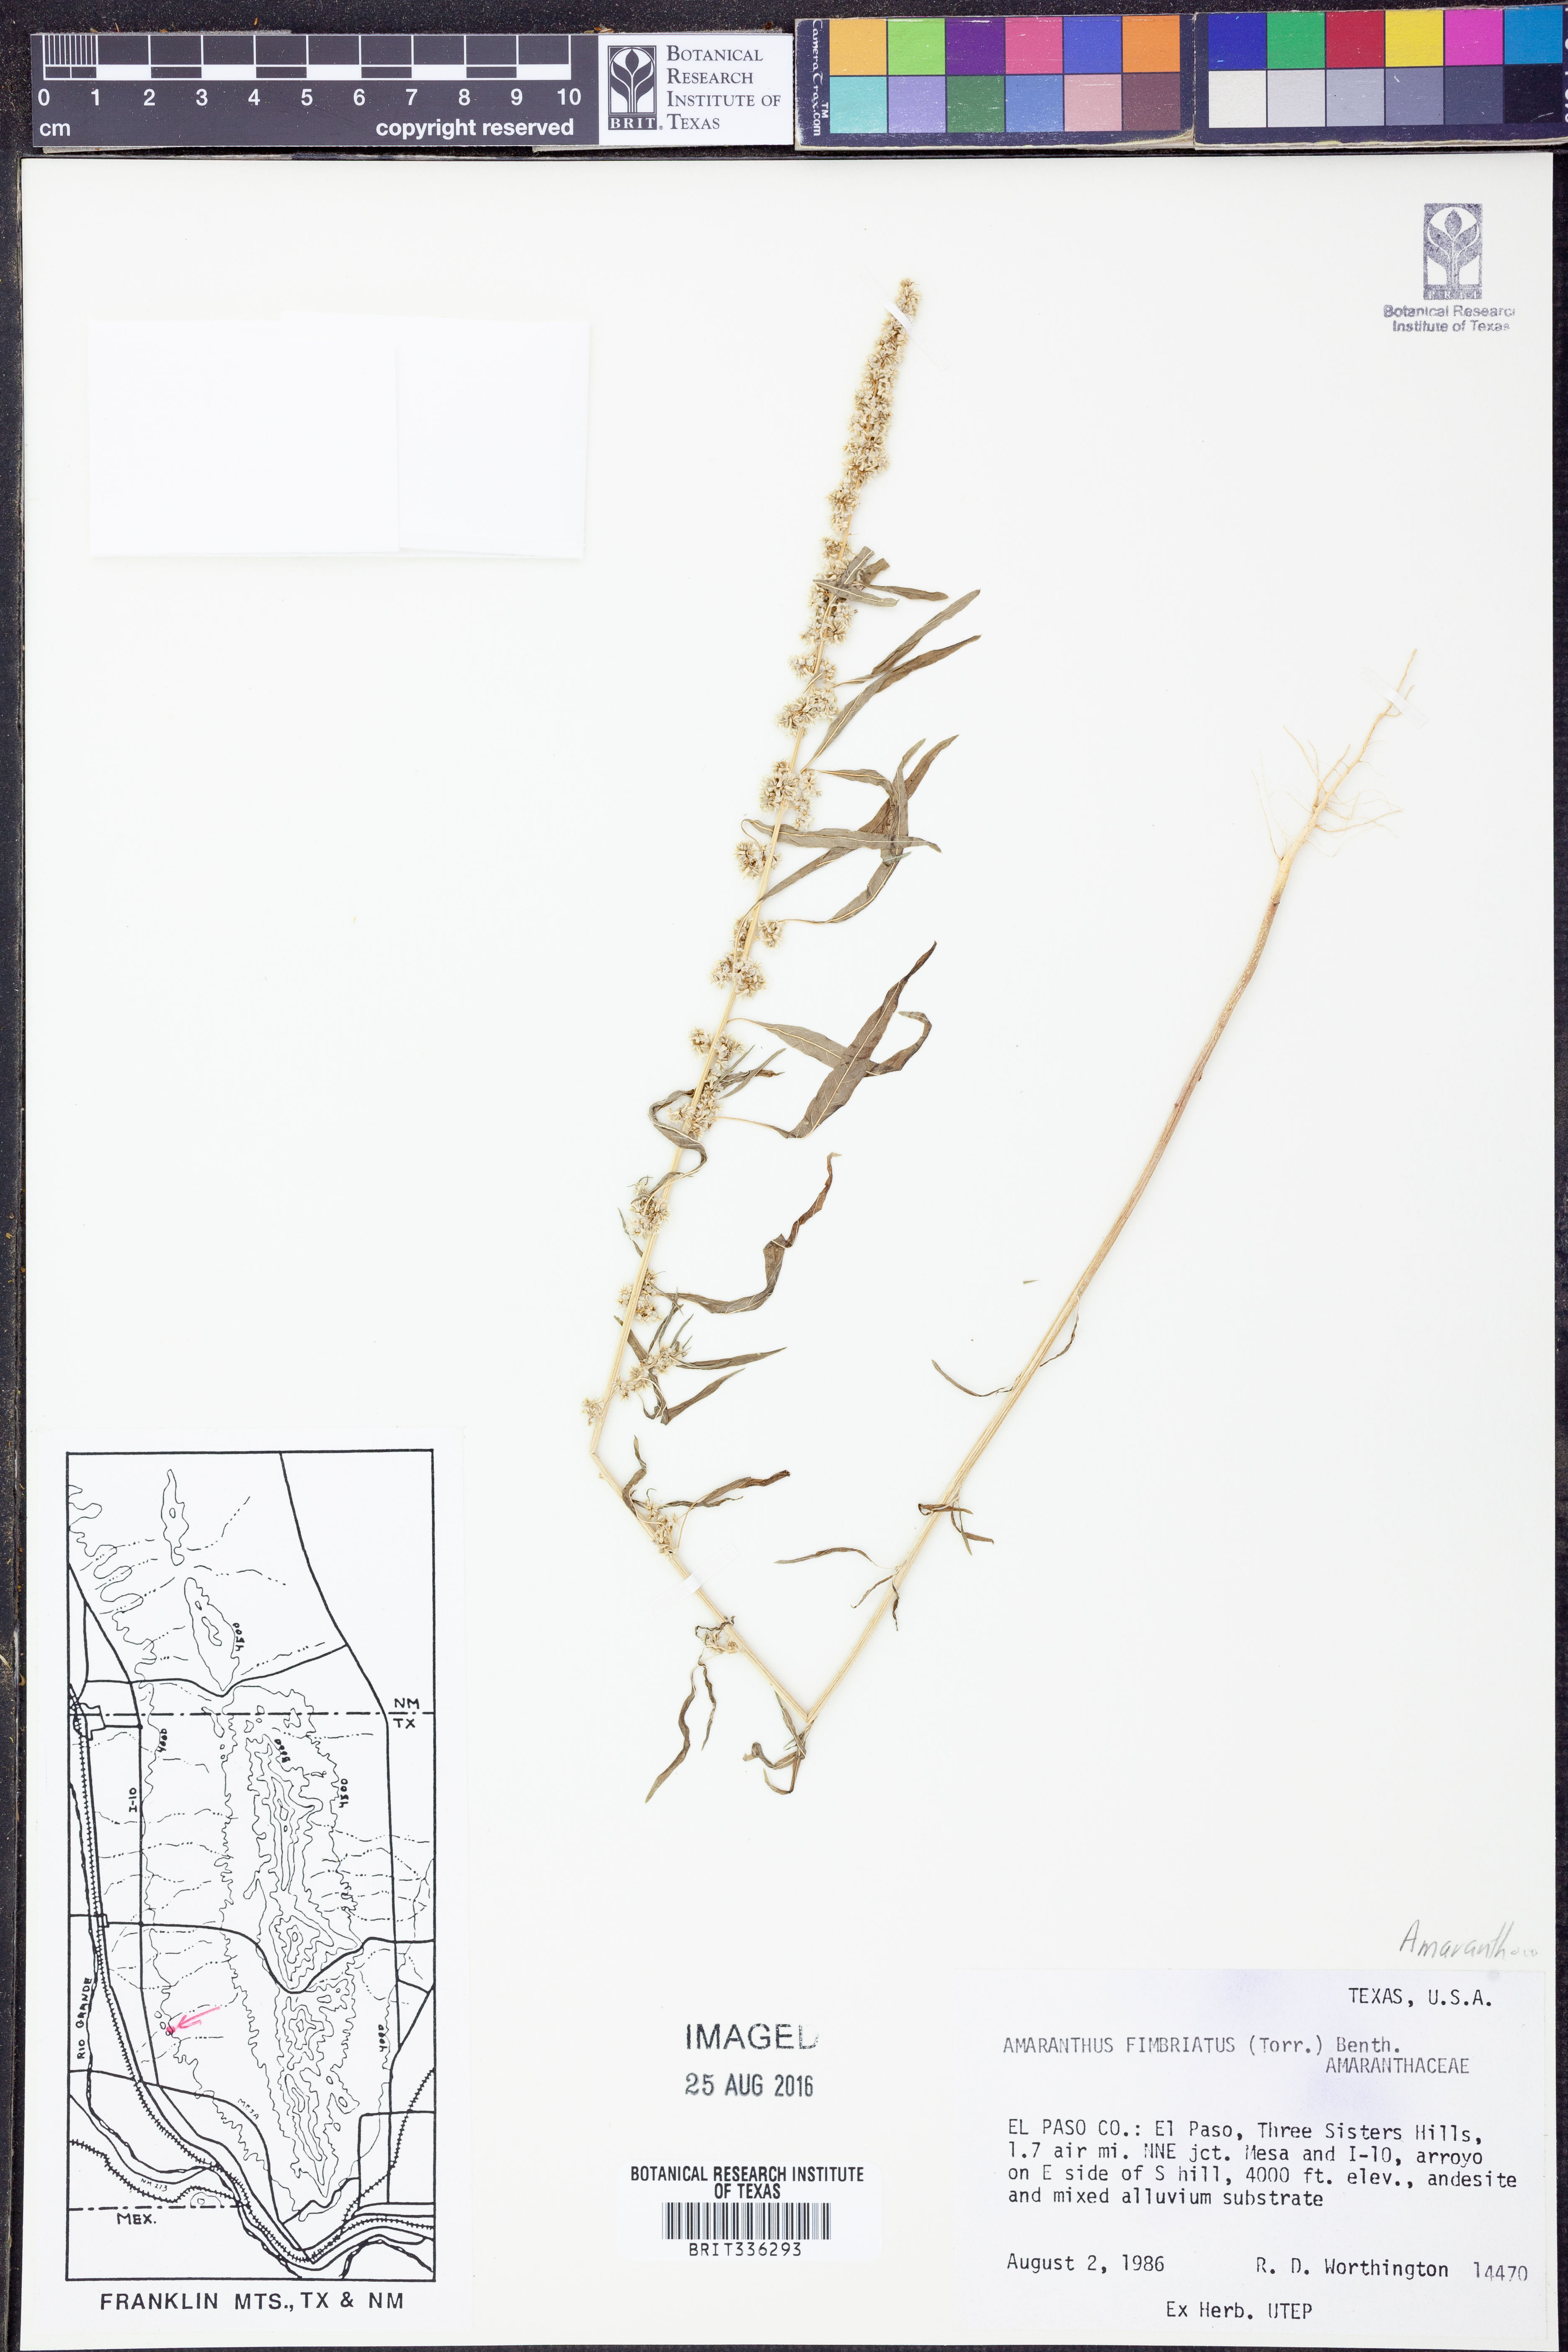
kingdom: Plantae
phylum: Tracheophyta
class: Magnoliopsida
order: Caryophyllales
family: Amaranthaceae
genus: Amaranthus
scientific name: Amaranthus fimbriatus
